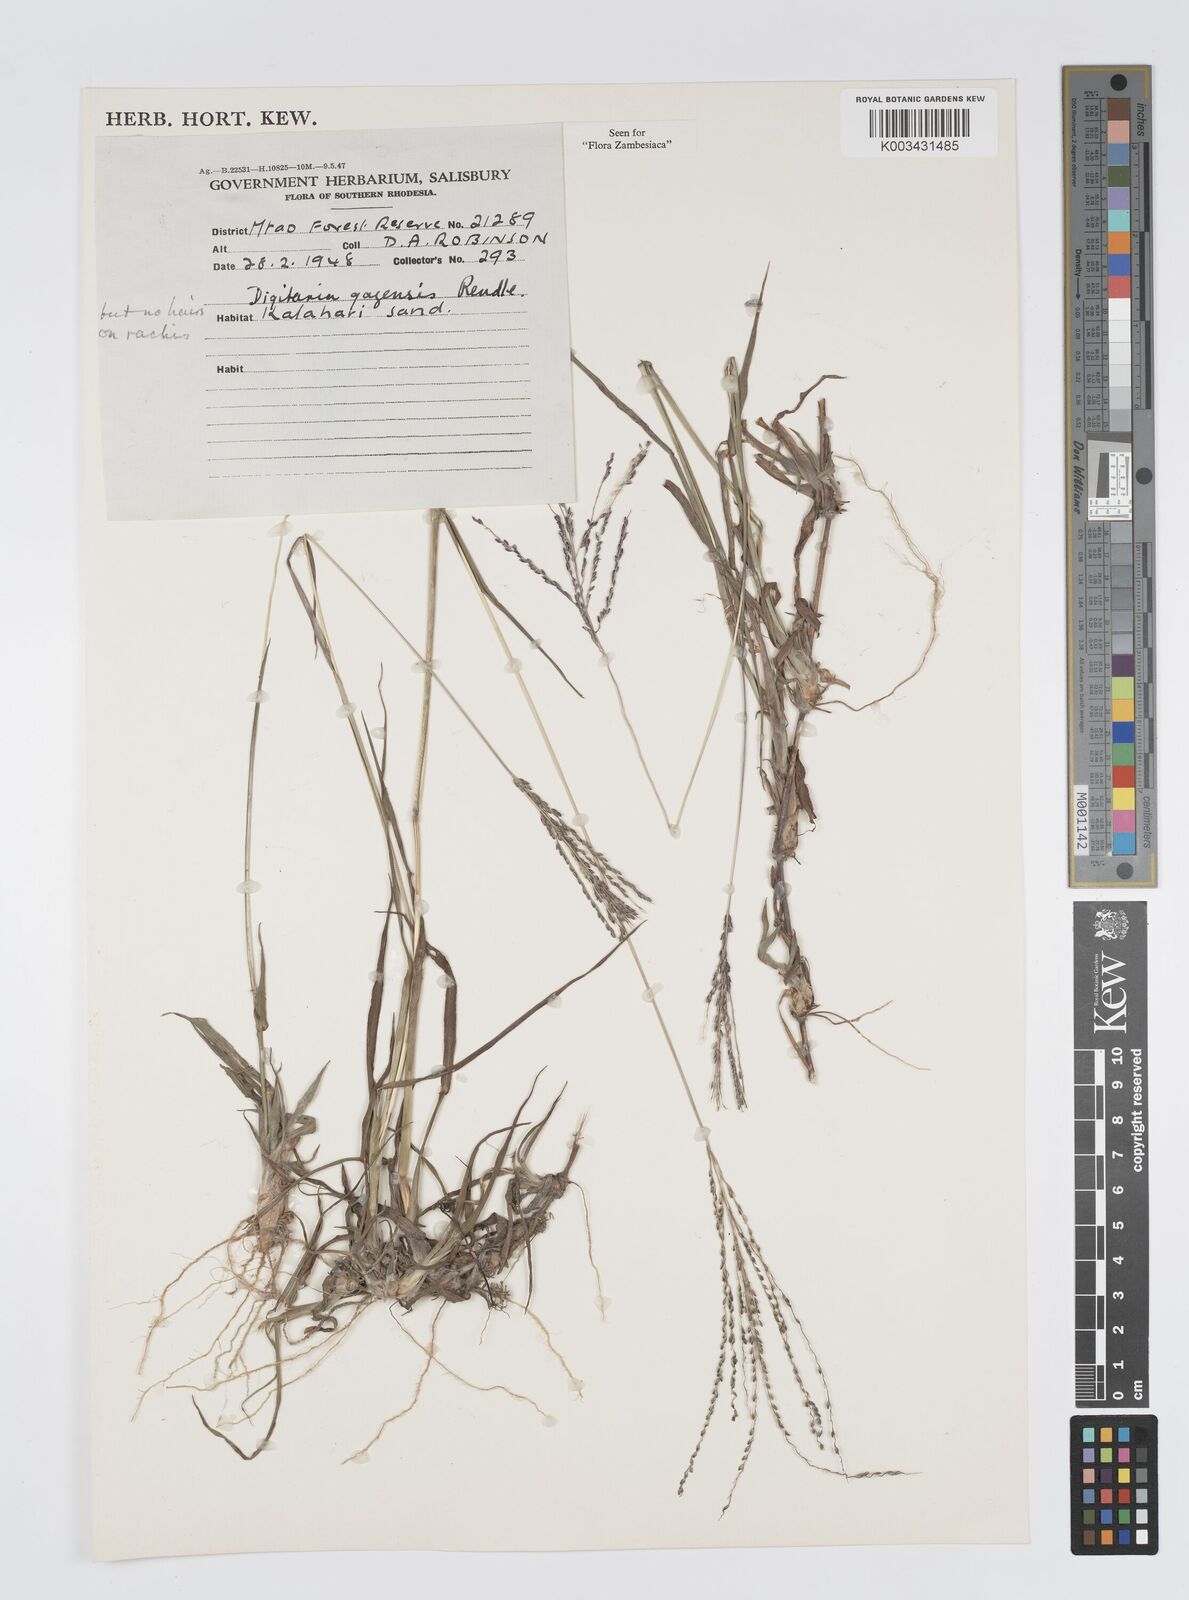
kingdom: Plantae
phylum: Tracheophyta
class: Liliopsida
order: Poales
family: Poaceae
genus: Digitaria
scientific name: Digitaria gazensis
